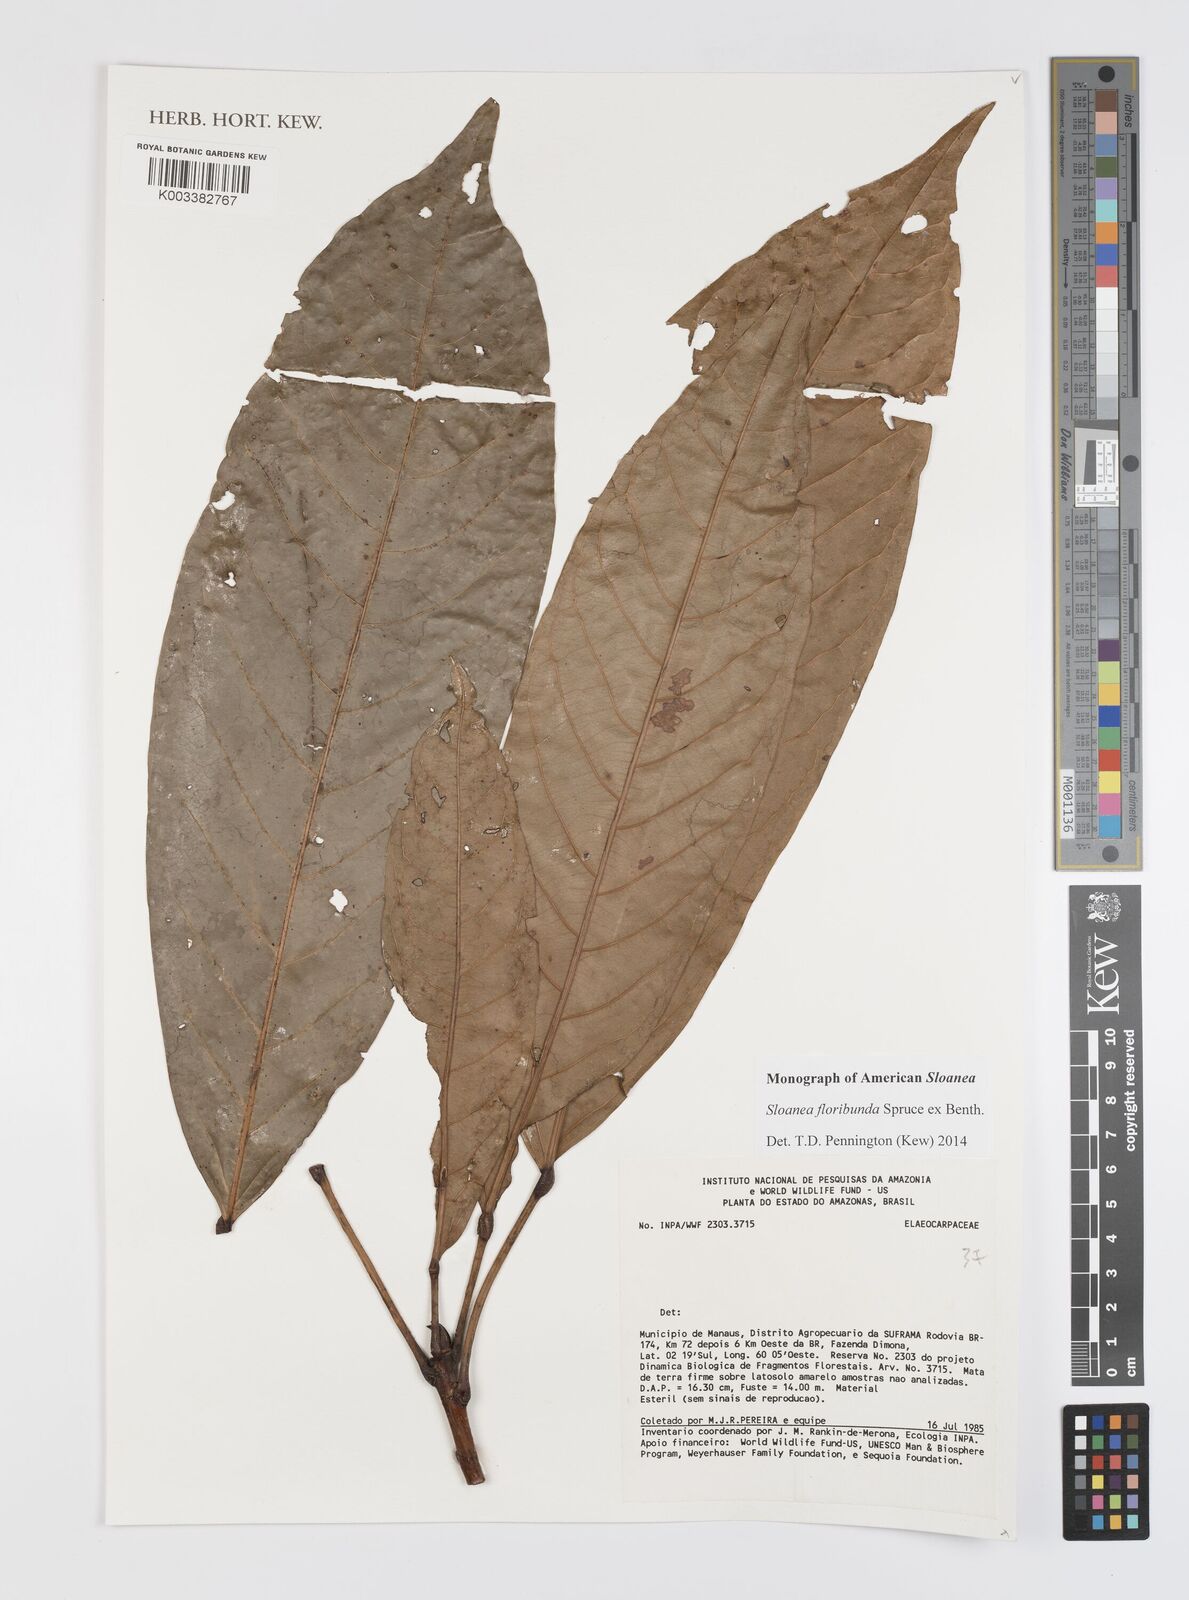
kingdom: Plantae
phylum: Tracheophyta
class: Magnoliopsida
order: Oxalidales
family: Elaeocarpaceae
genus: Sloanea
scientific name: Sloanea floribunda
